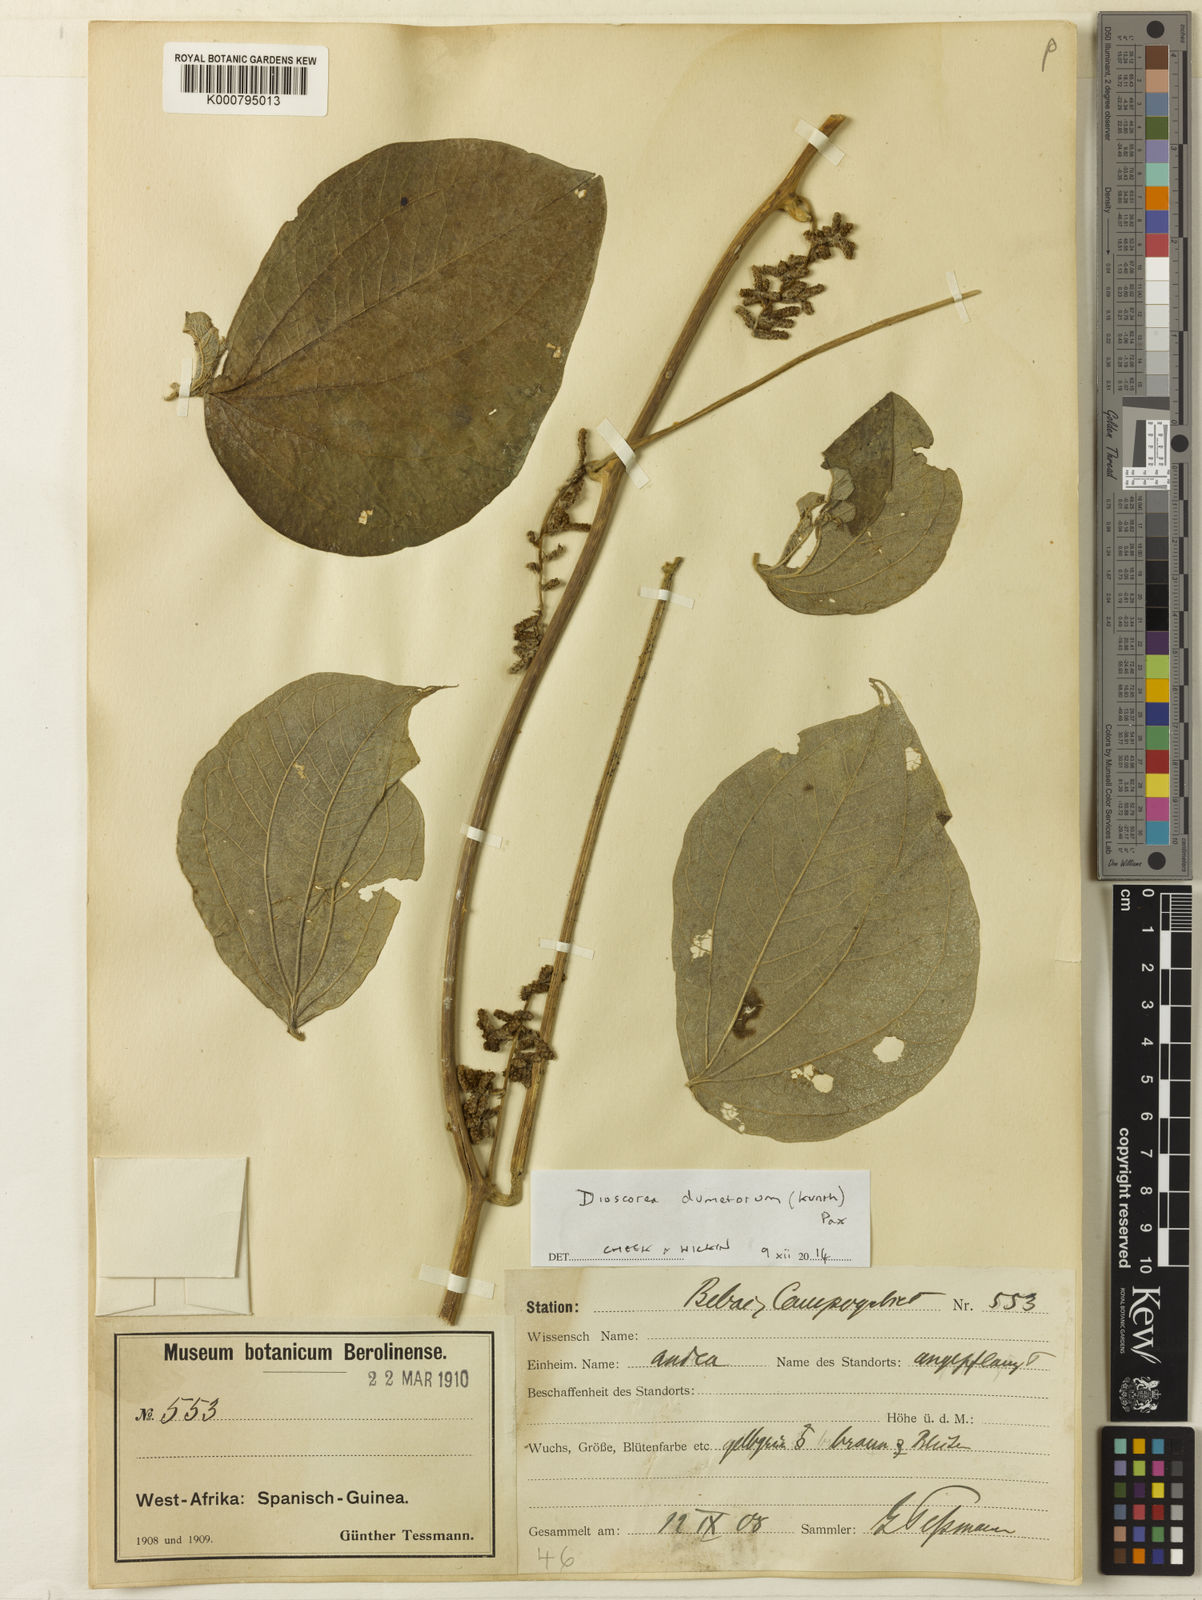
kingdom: Plantae
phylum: Tracheophyta
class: Liliopsida
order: Dioscoreales
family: Dioscoreaceae
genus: Dioscorea
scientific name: Dioscorea dumetorum
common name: African bitter yam
